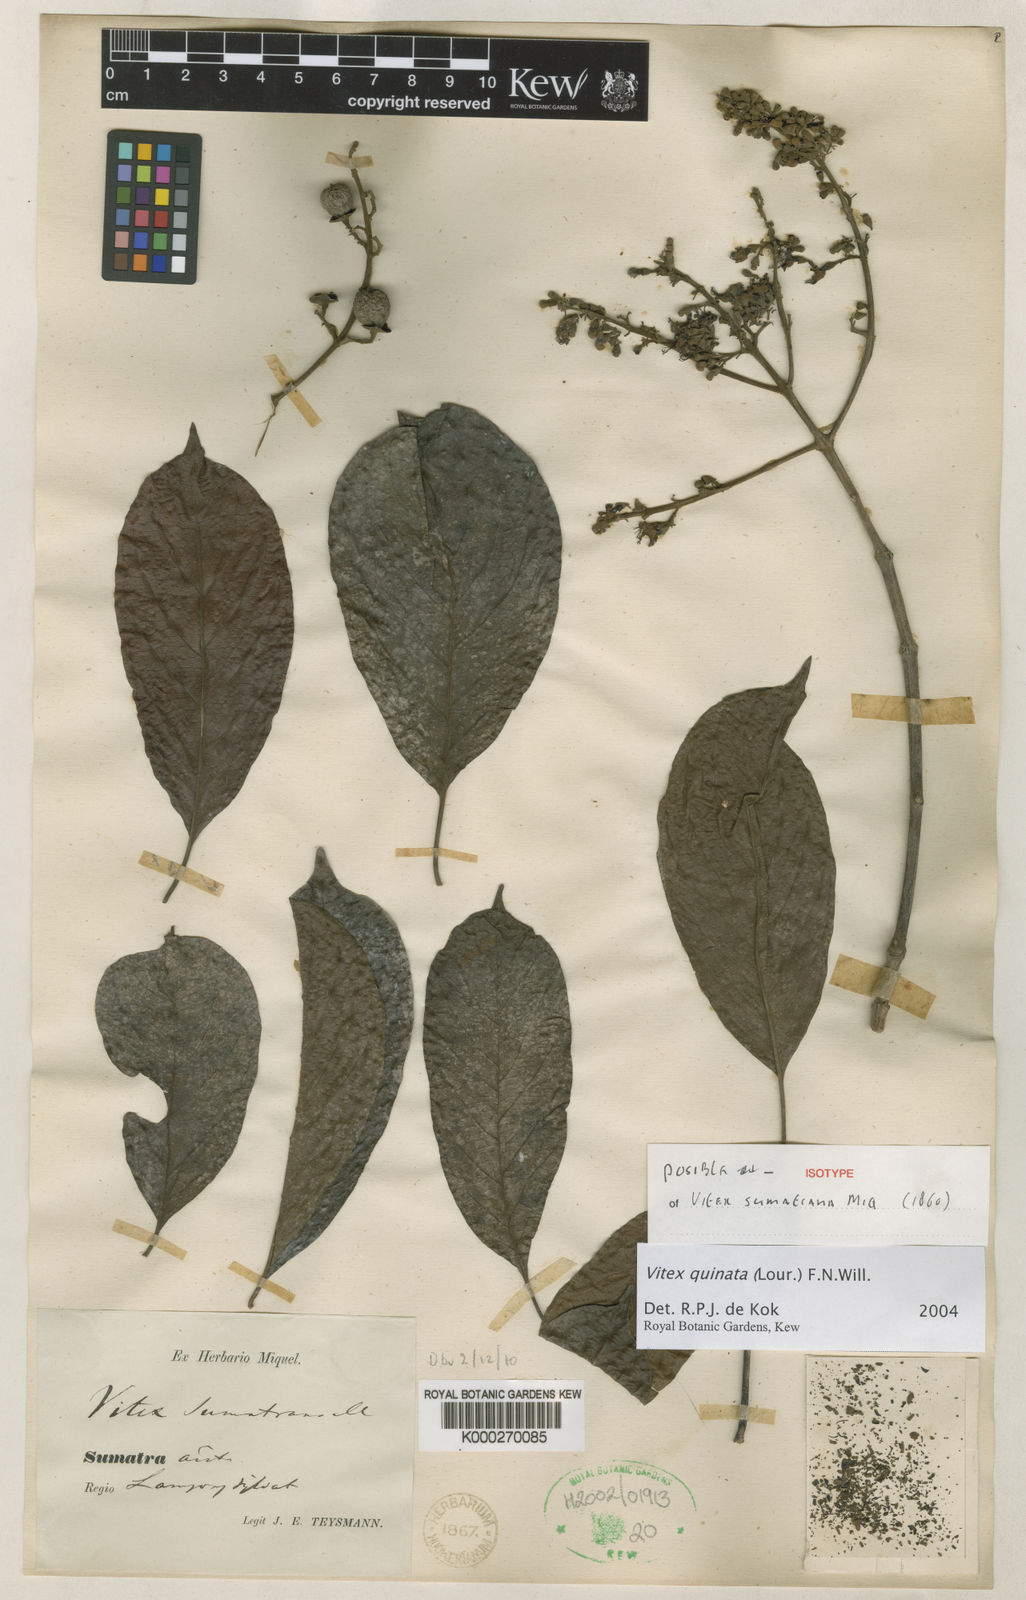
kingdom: Plantae
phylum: Tracheophyta
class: Magnoliopsida
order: Lamiales
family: Lamiaceae
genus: Vitex
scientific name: Vitex quinata
